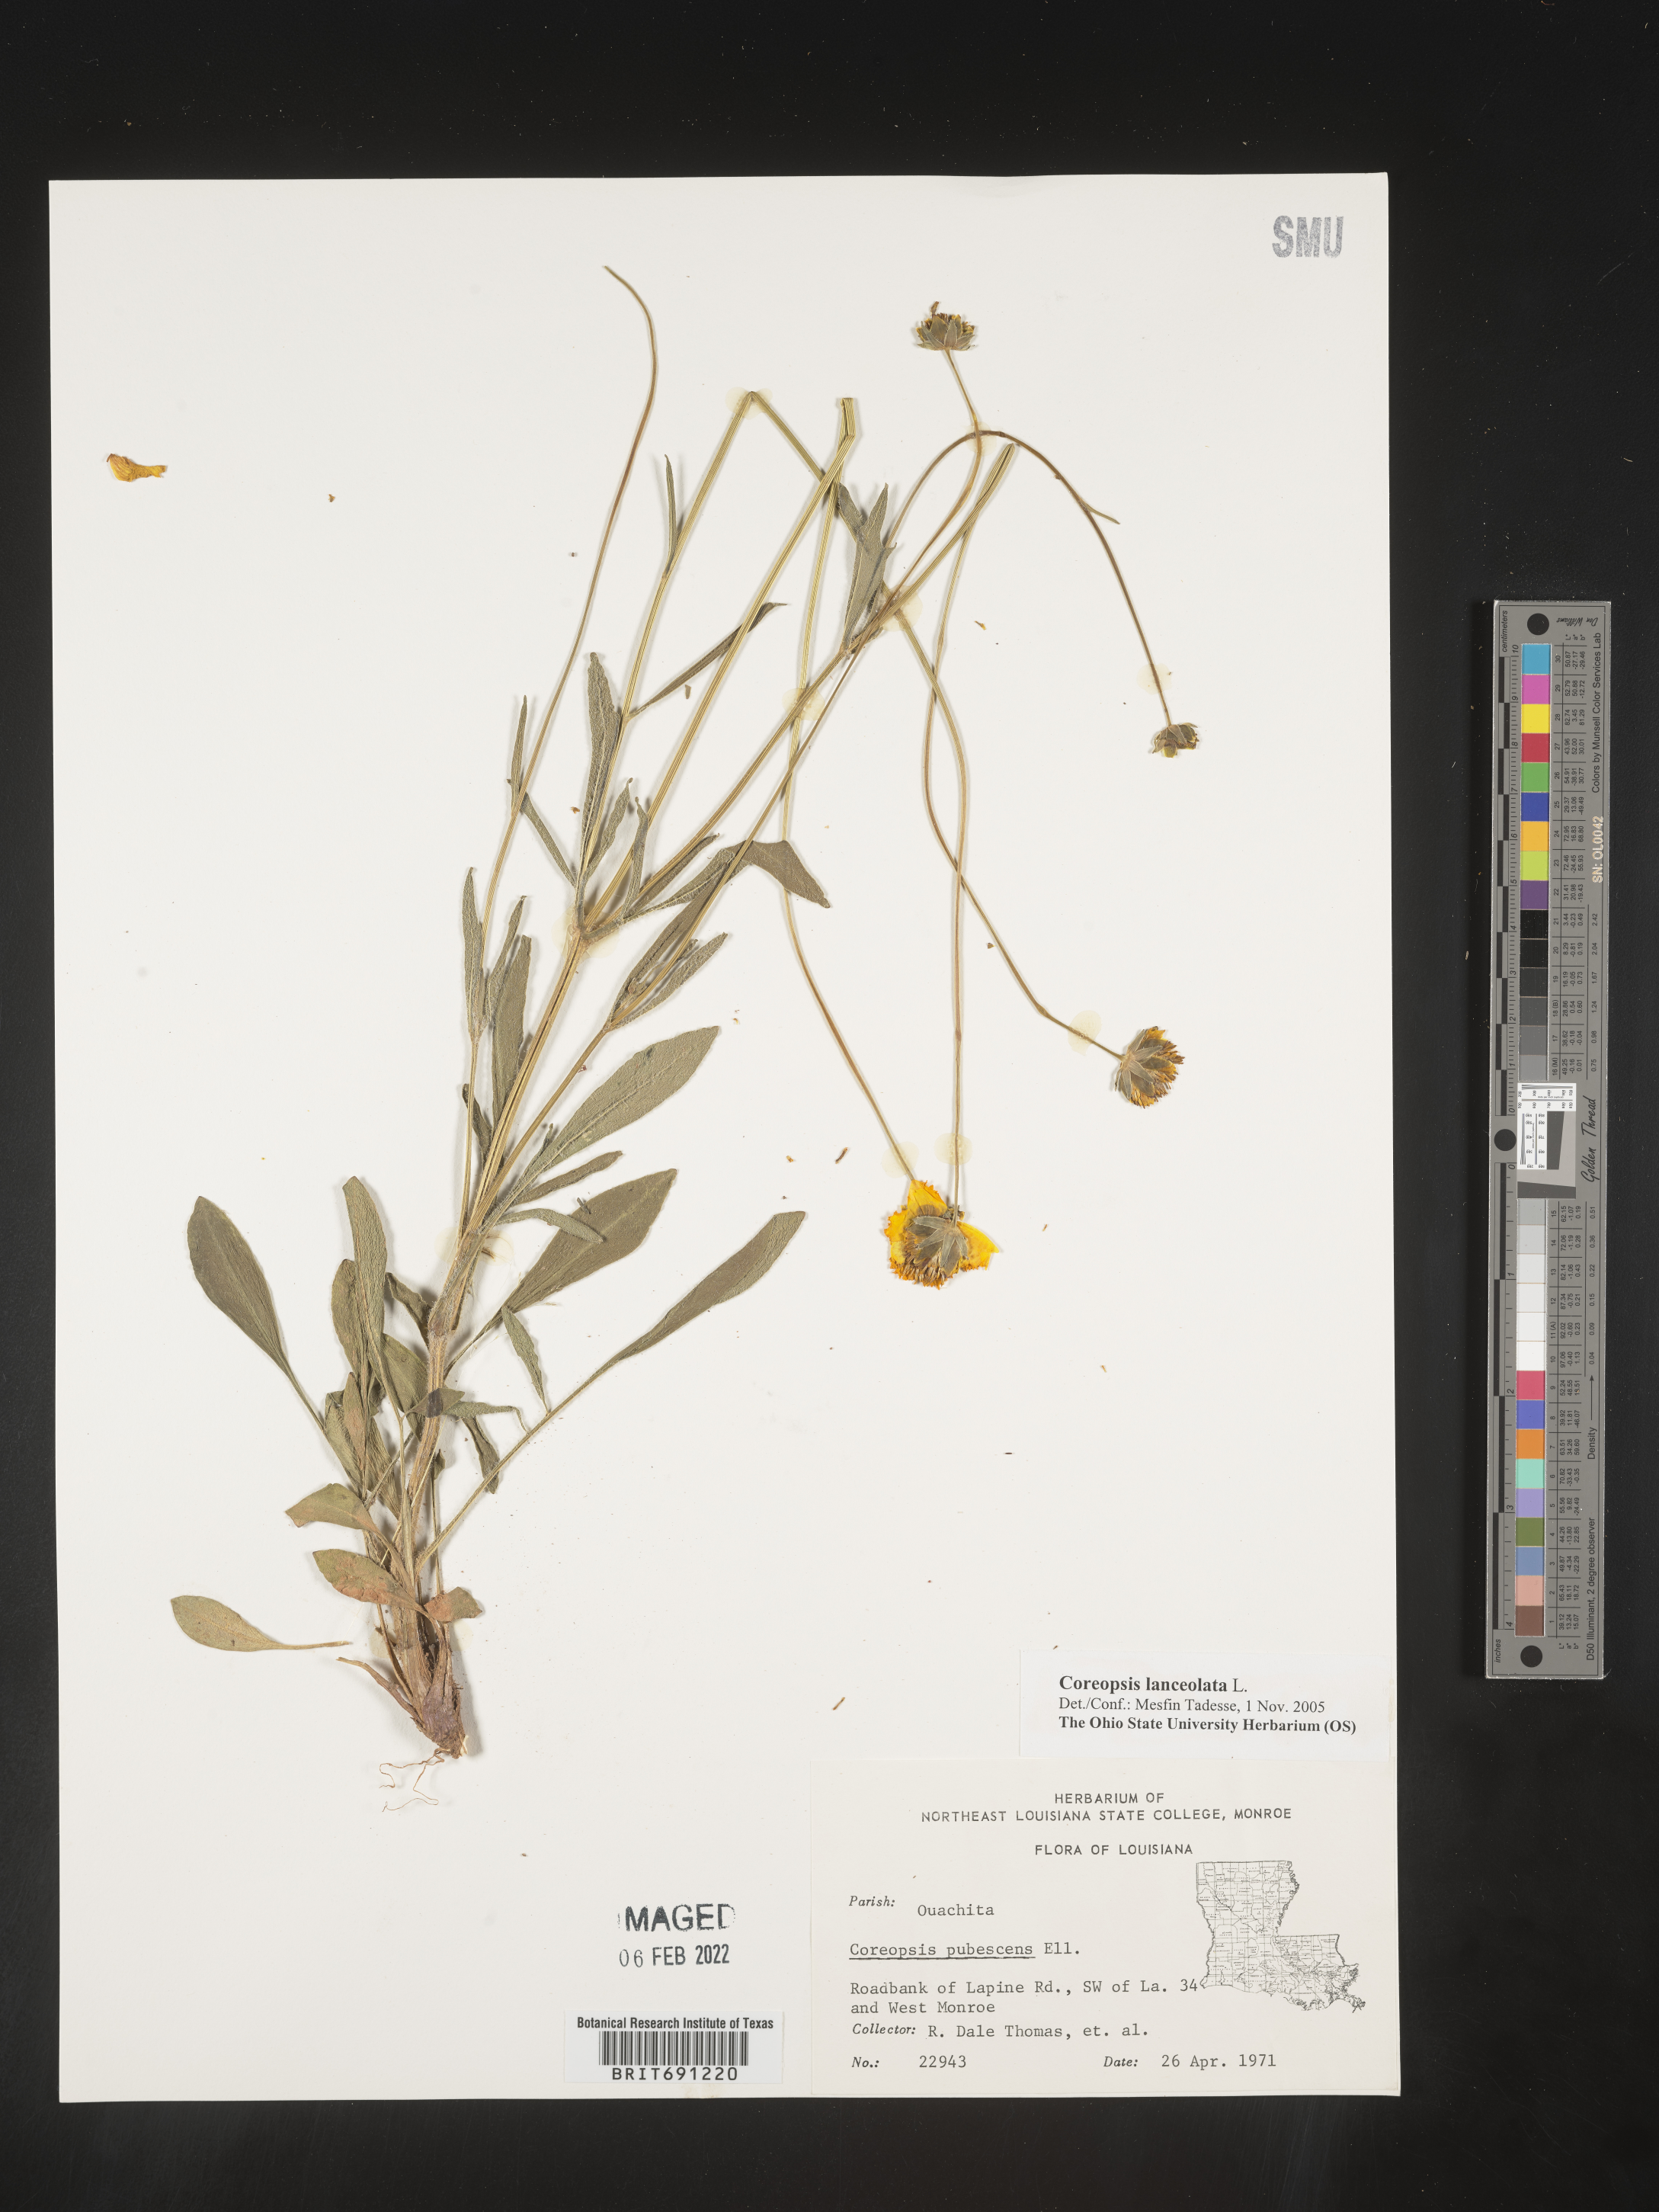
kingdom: Plantae
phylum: Tracheophyta
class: Magnoliopsida
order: Asterales
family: Asteraceae
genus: Coreopsis
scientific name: Coreopsis lanceolata
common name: Garden coreopsis
